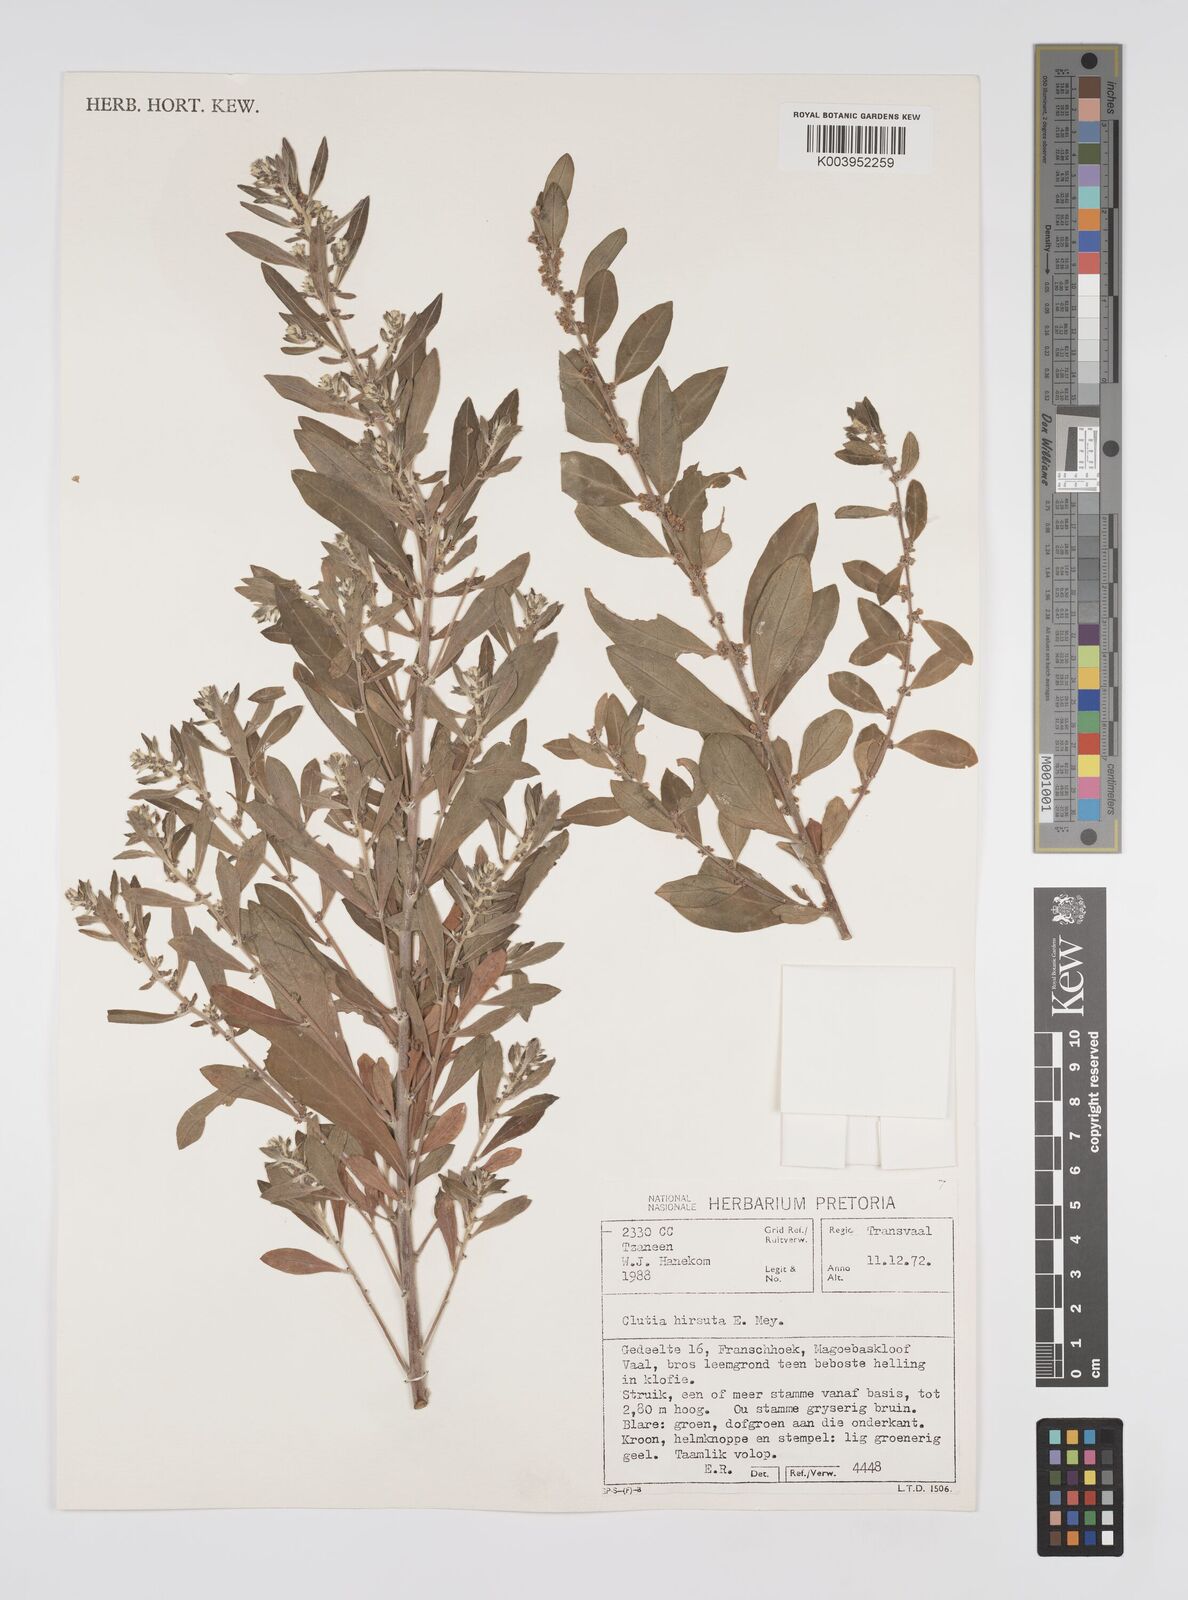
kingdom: Plantae
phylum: Tracheophyta
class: Magnoliopsida
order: Malpighiales
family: Peraceae
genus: Clutia
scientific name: Clutia affinis
